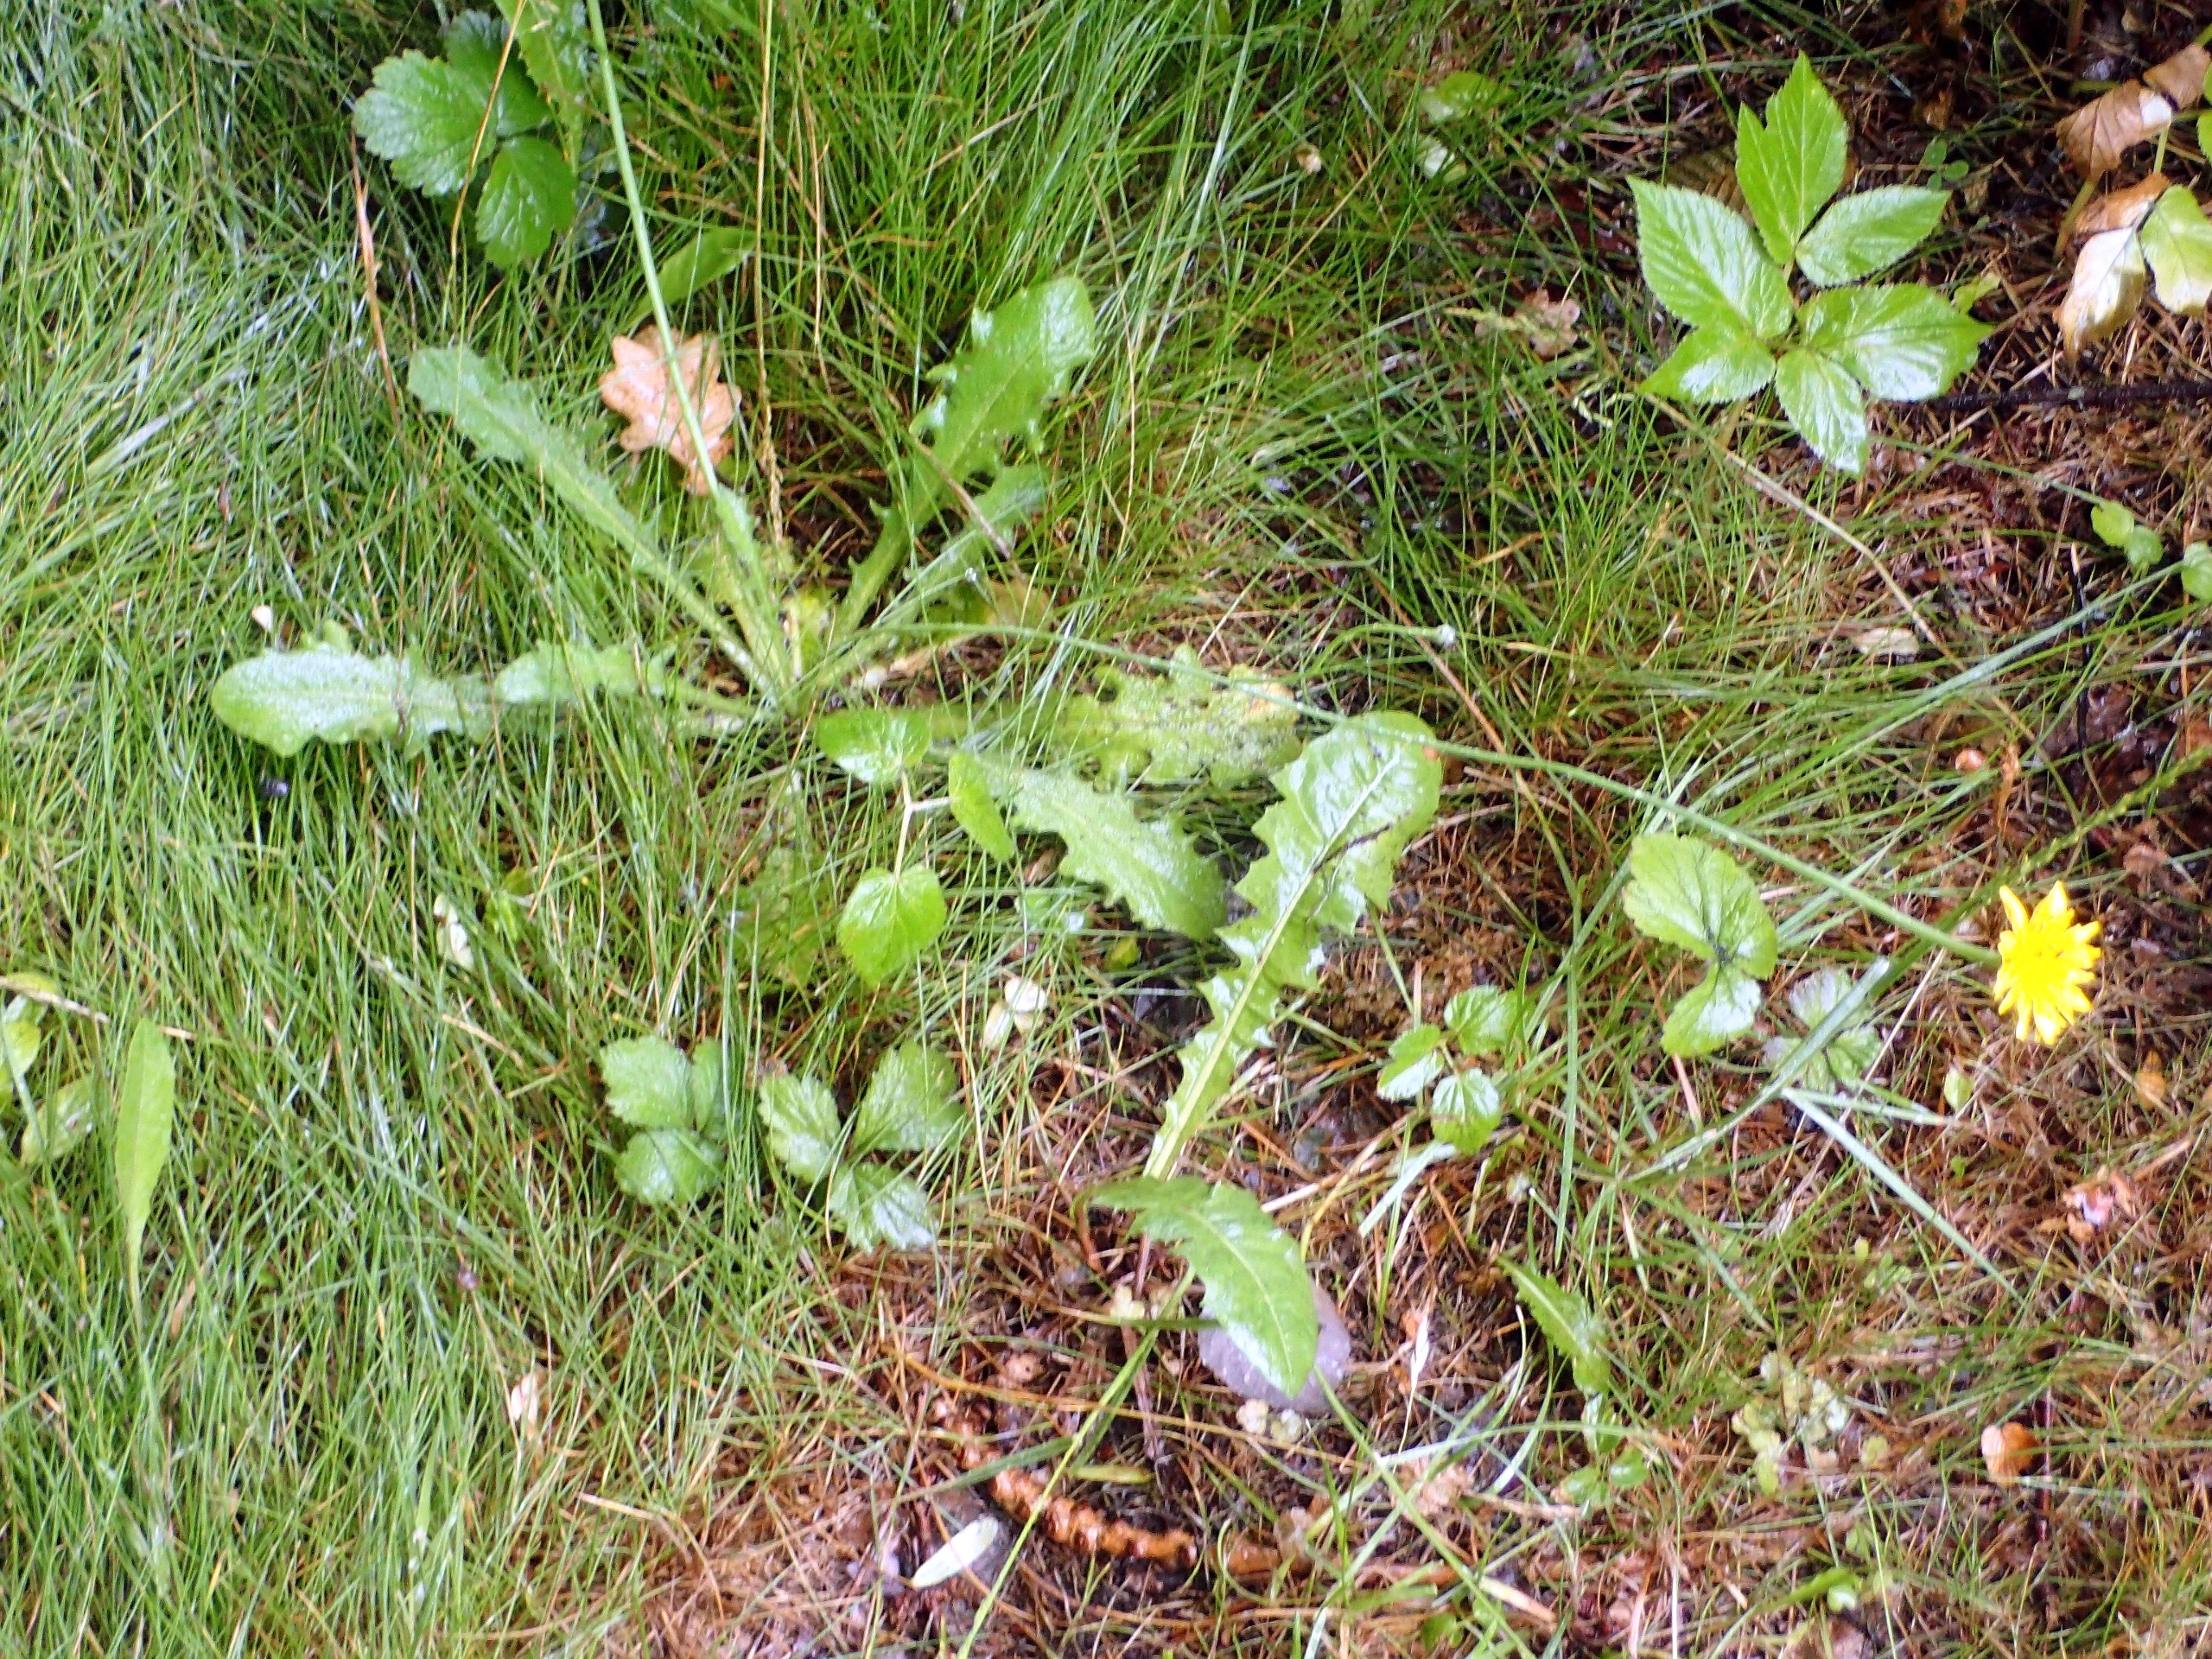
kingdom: Plantae
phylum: Tracheophyta
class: Magnoliopsida
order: Asterales
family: Asteraceae
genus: Hypochaeris
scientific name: Hypochaeris radicata
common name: Almindelig kongepen
